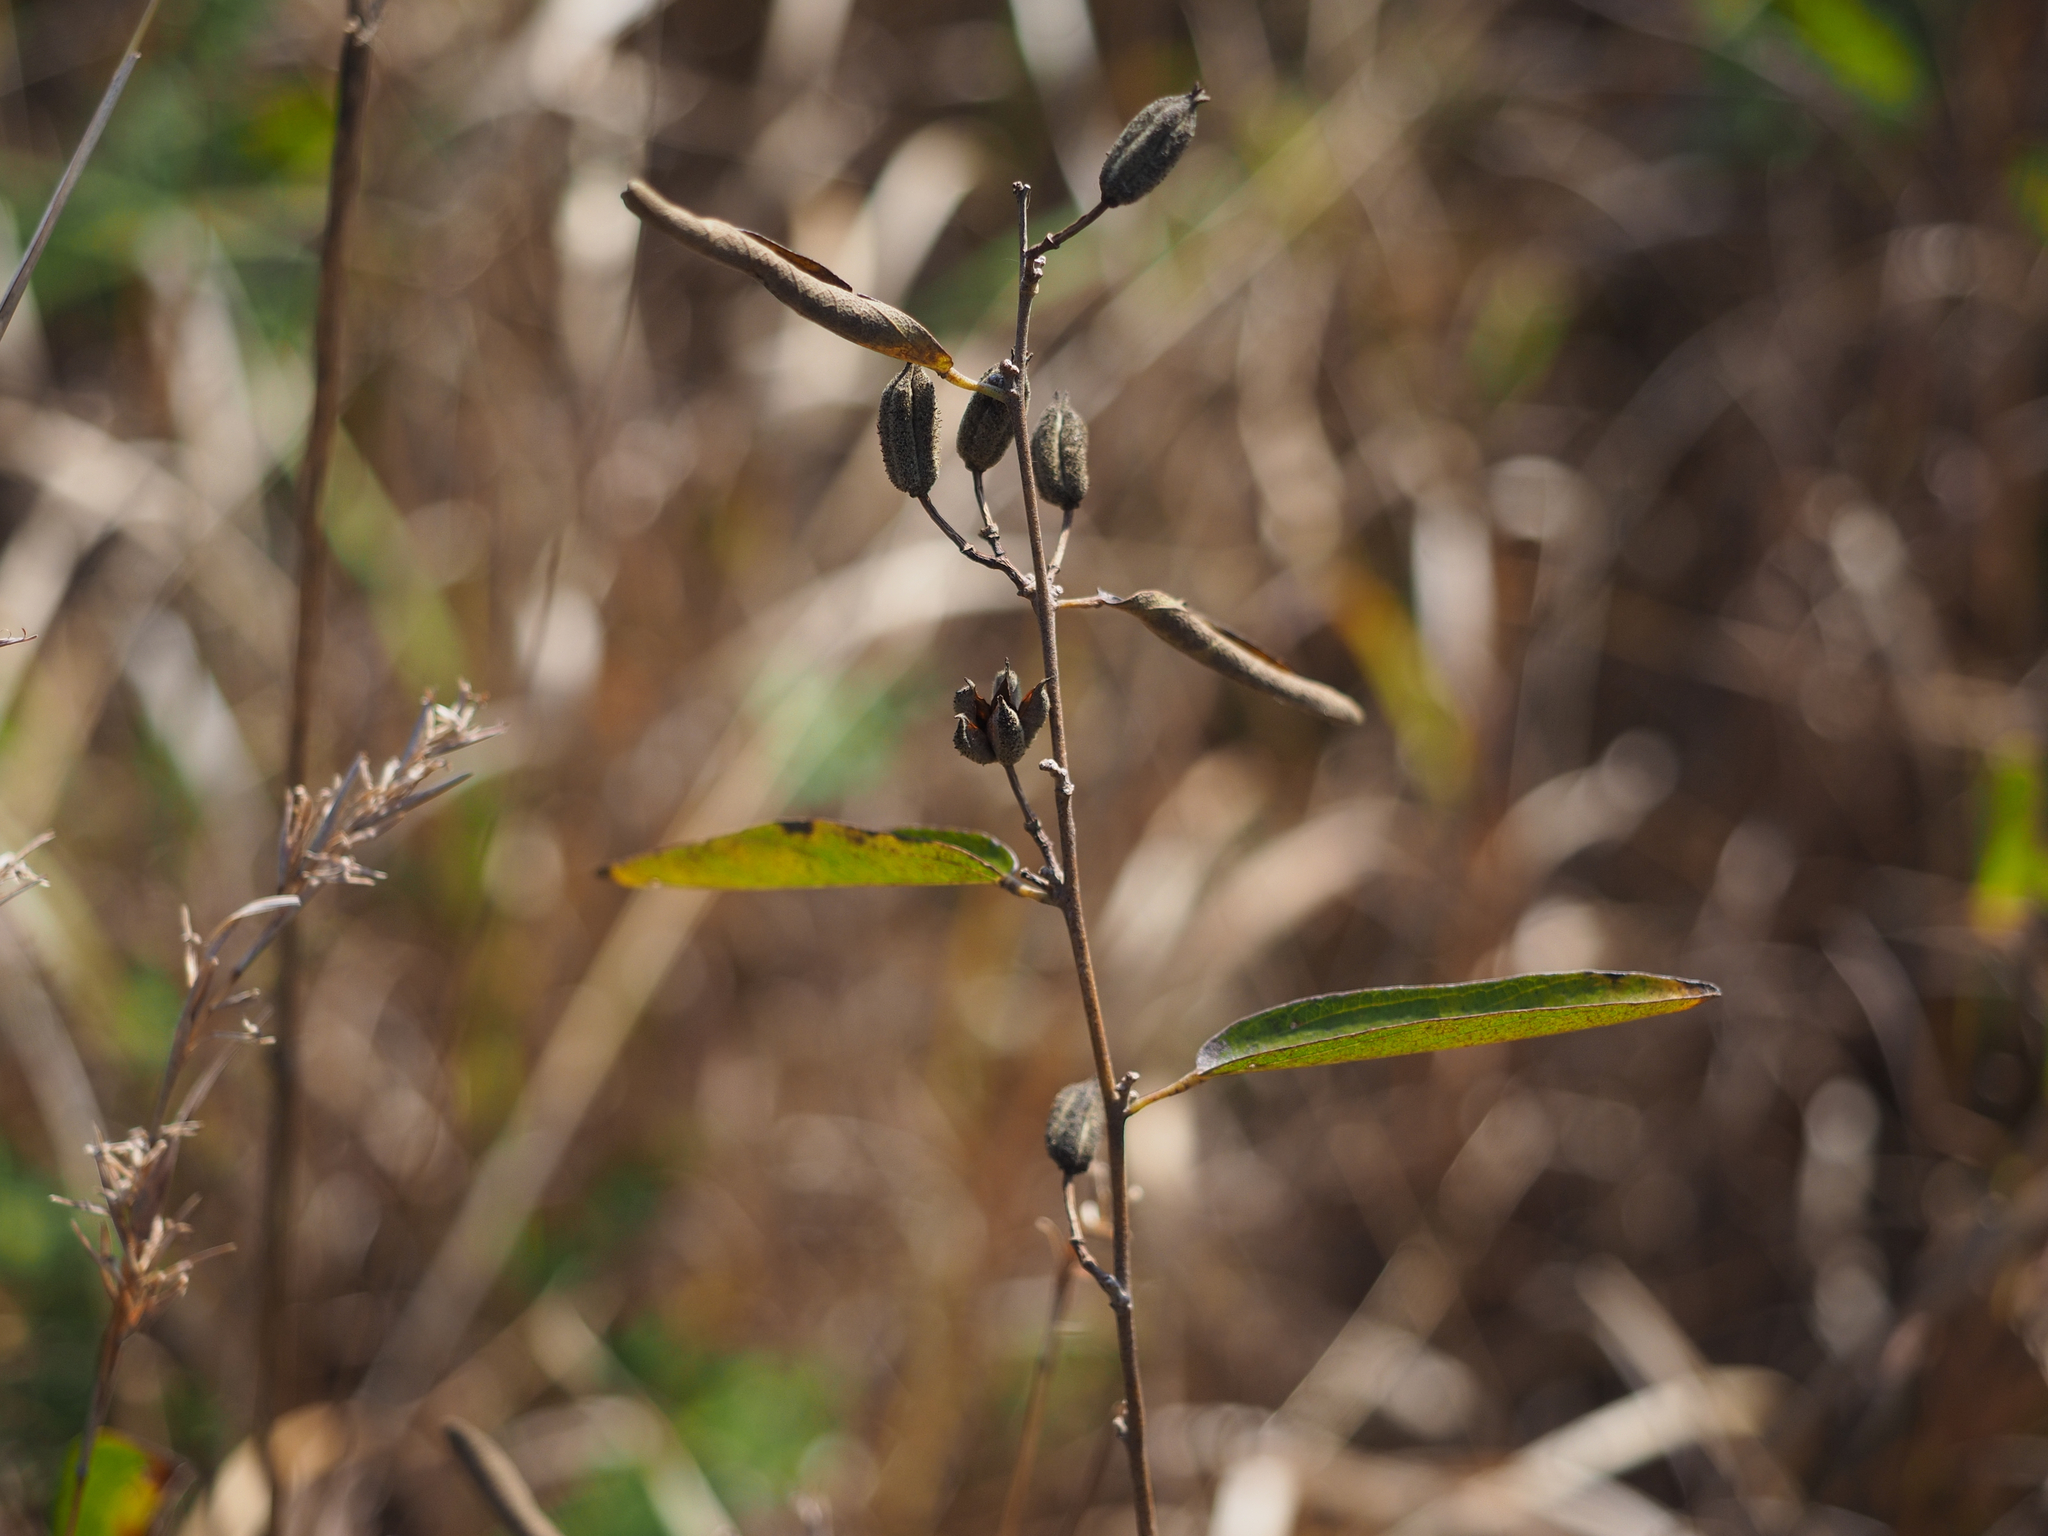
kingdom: Plantae
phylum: Tracheophyta
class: Magnoliopsida
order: Malvales
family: Malvaceae
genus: Helicteres
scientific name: Helicteres augustifolia
